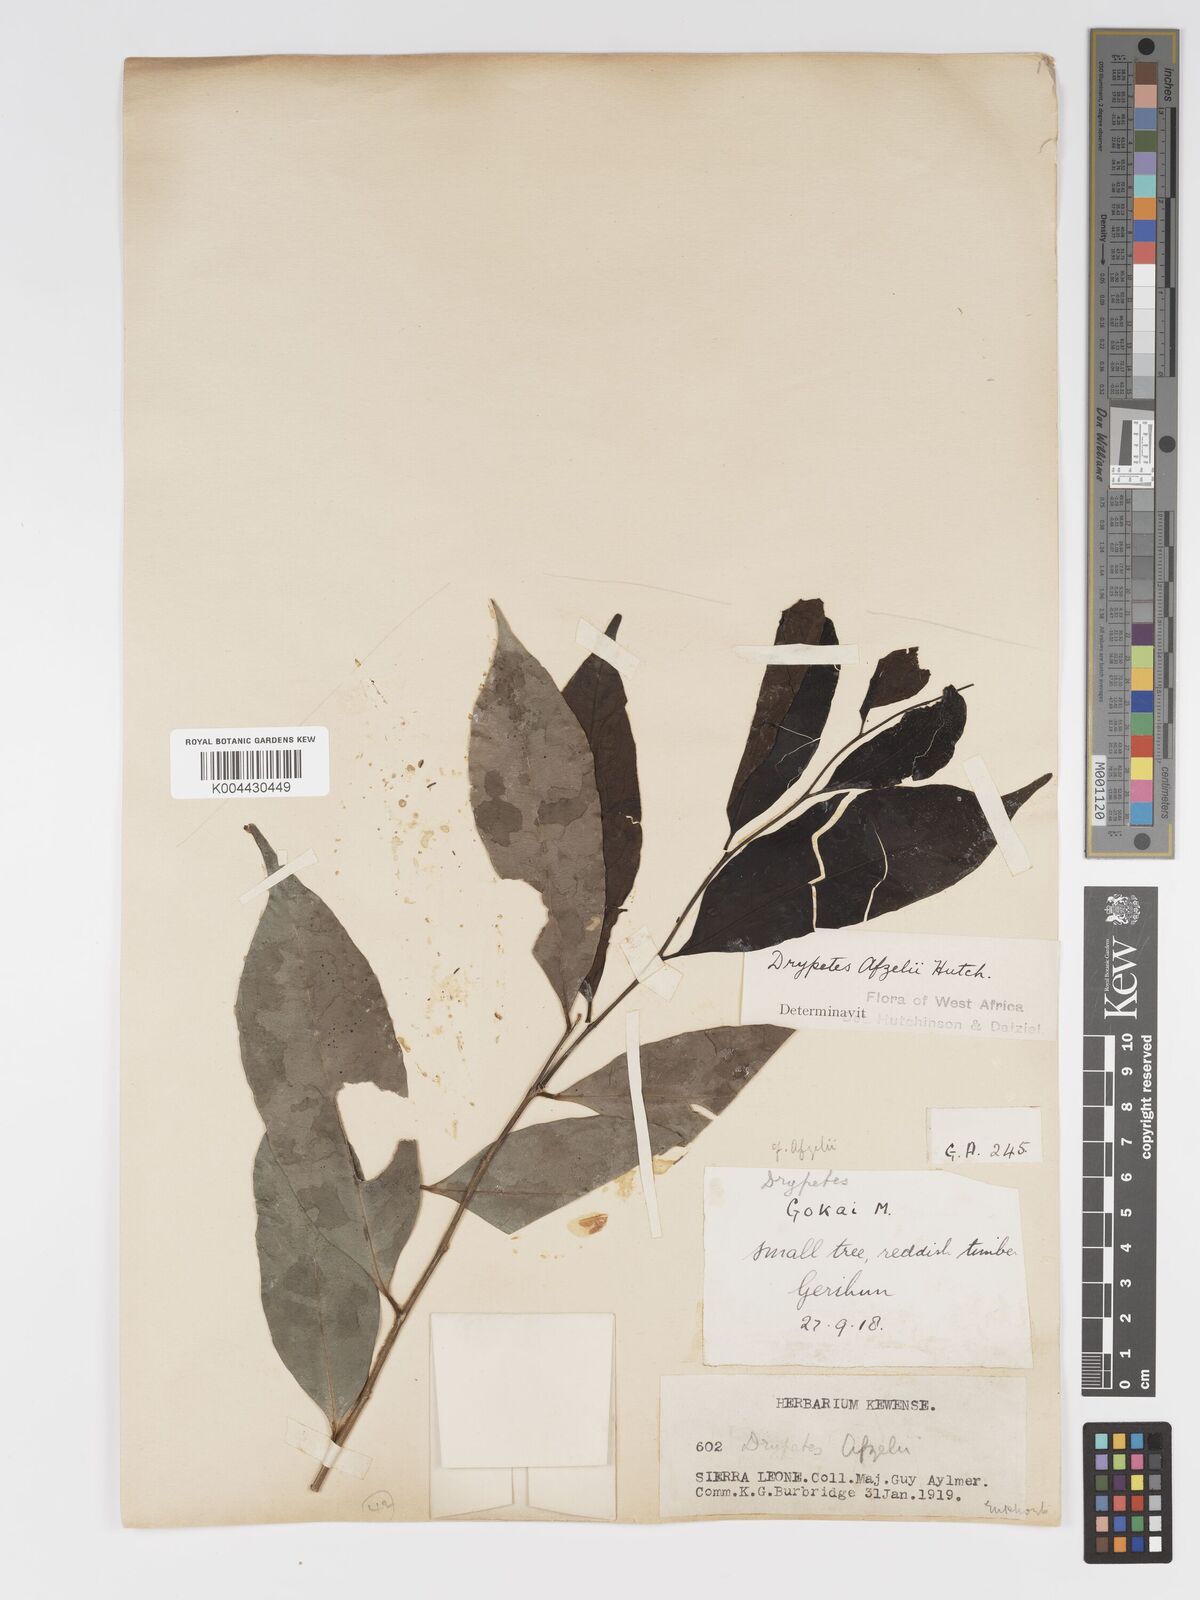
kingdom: Plantae
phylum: Tracheophyta
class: Magnoliopsida
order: Malpighiales
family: Putranjivaceae
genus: Drypetes
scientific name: Drypetes afzelii
